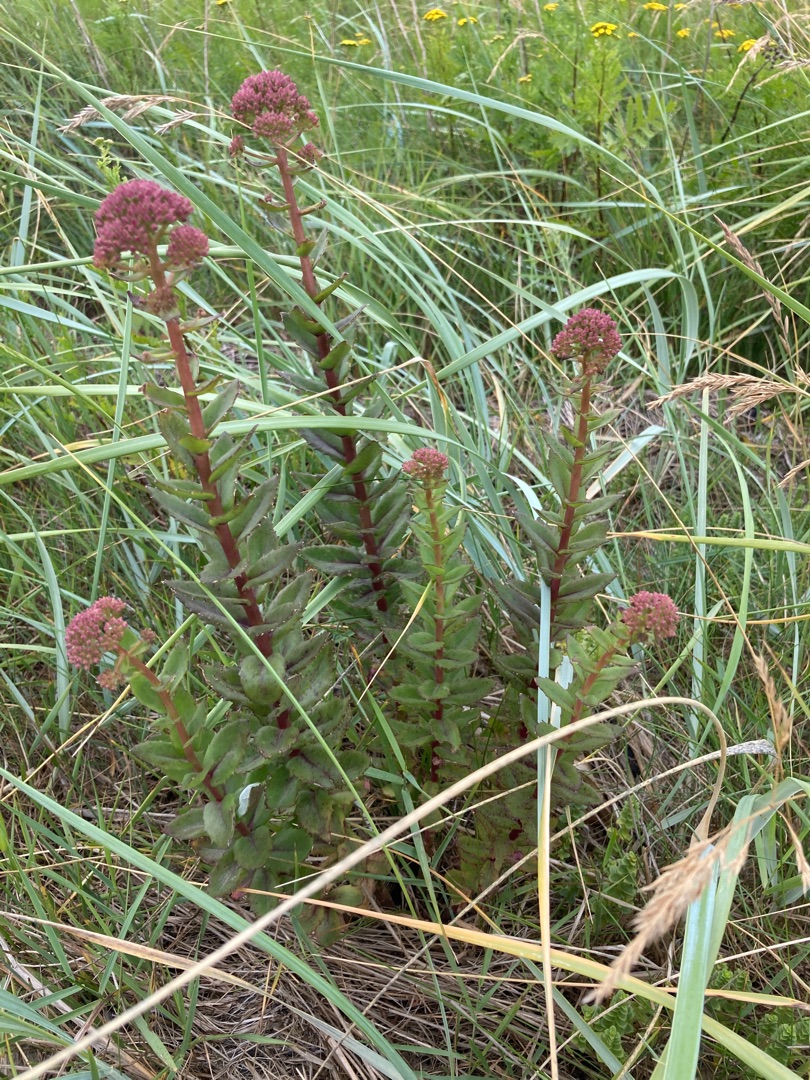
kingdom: Plantae
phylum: Tracheophyta
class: Magnoliopsida
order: Saxifragales
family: Crassulaceae
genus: Hylotelephium
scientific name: Hylotelephium telephium
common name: Rød sankthansurt
